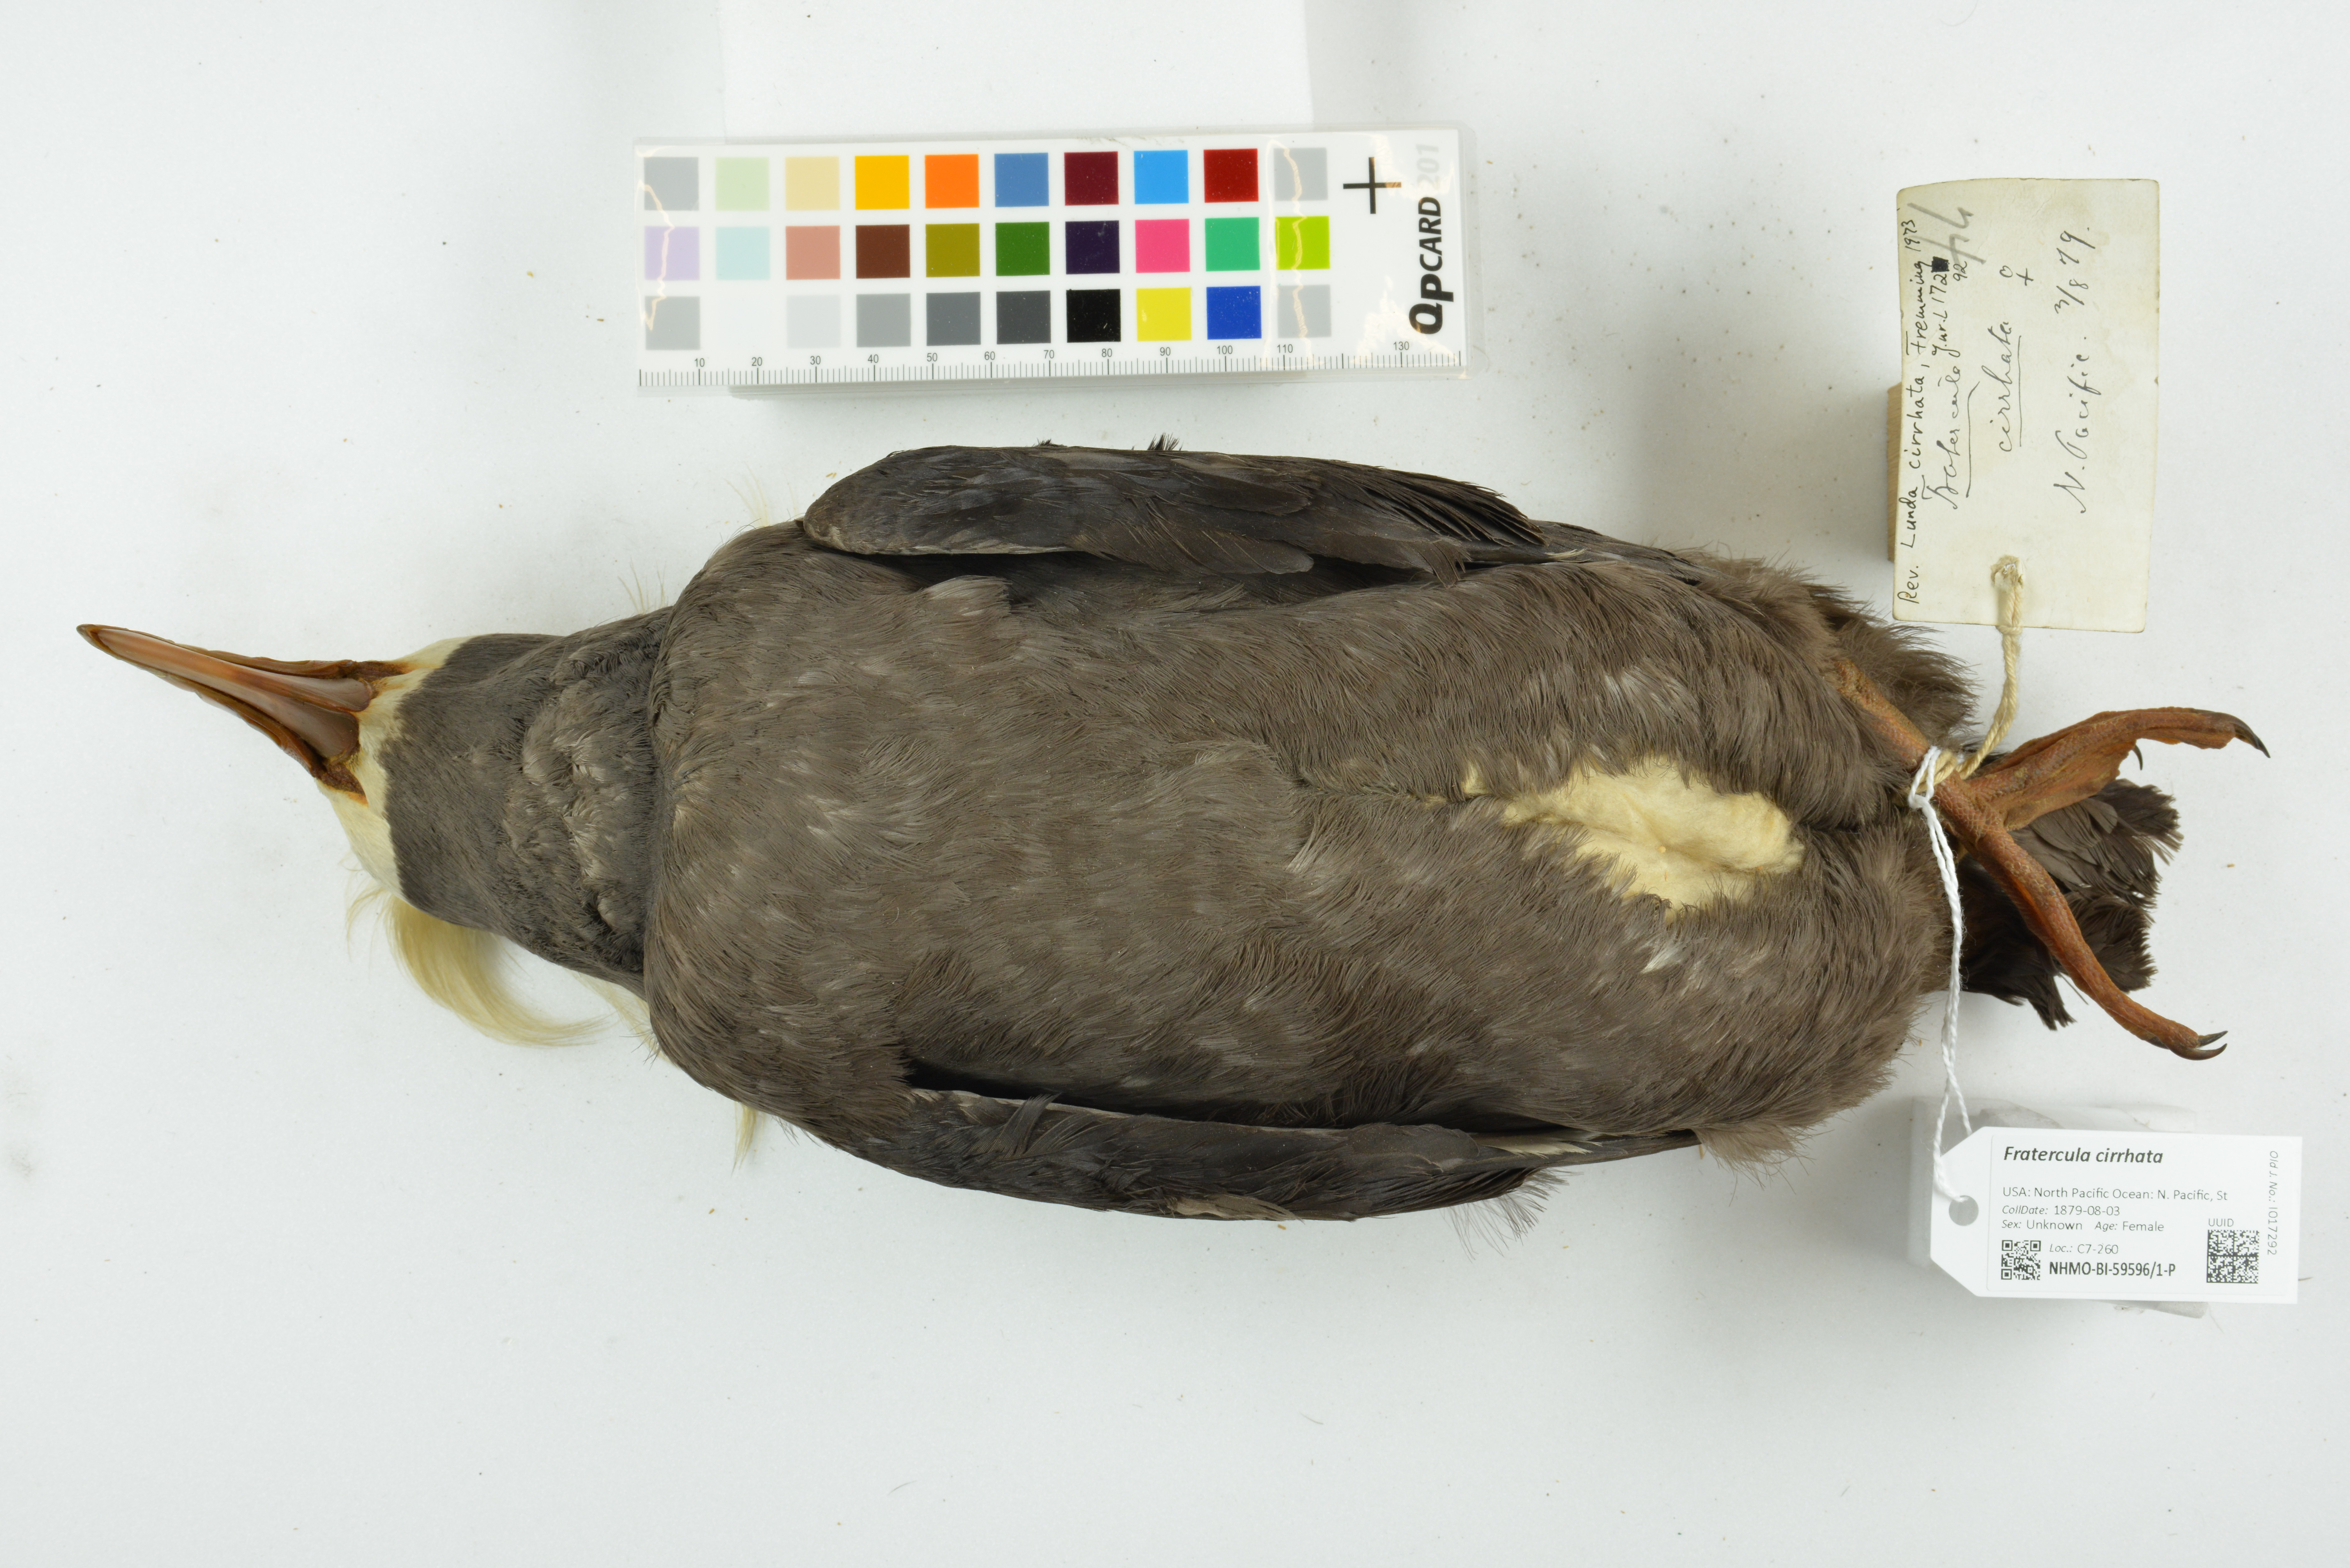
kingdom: Animalia
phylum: Chordata
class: Aves
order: Charadriiformes
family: Alcidae
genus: Fratercula
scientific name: Fratercula cirrhata
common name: Tufted puffin
